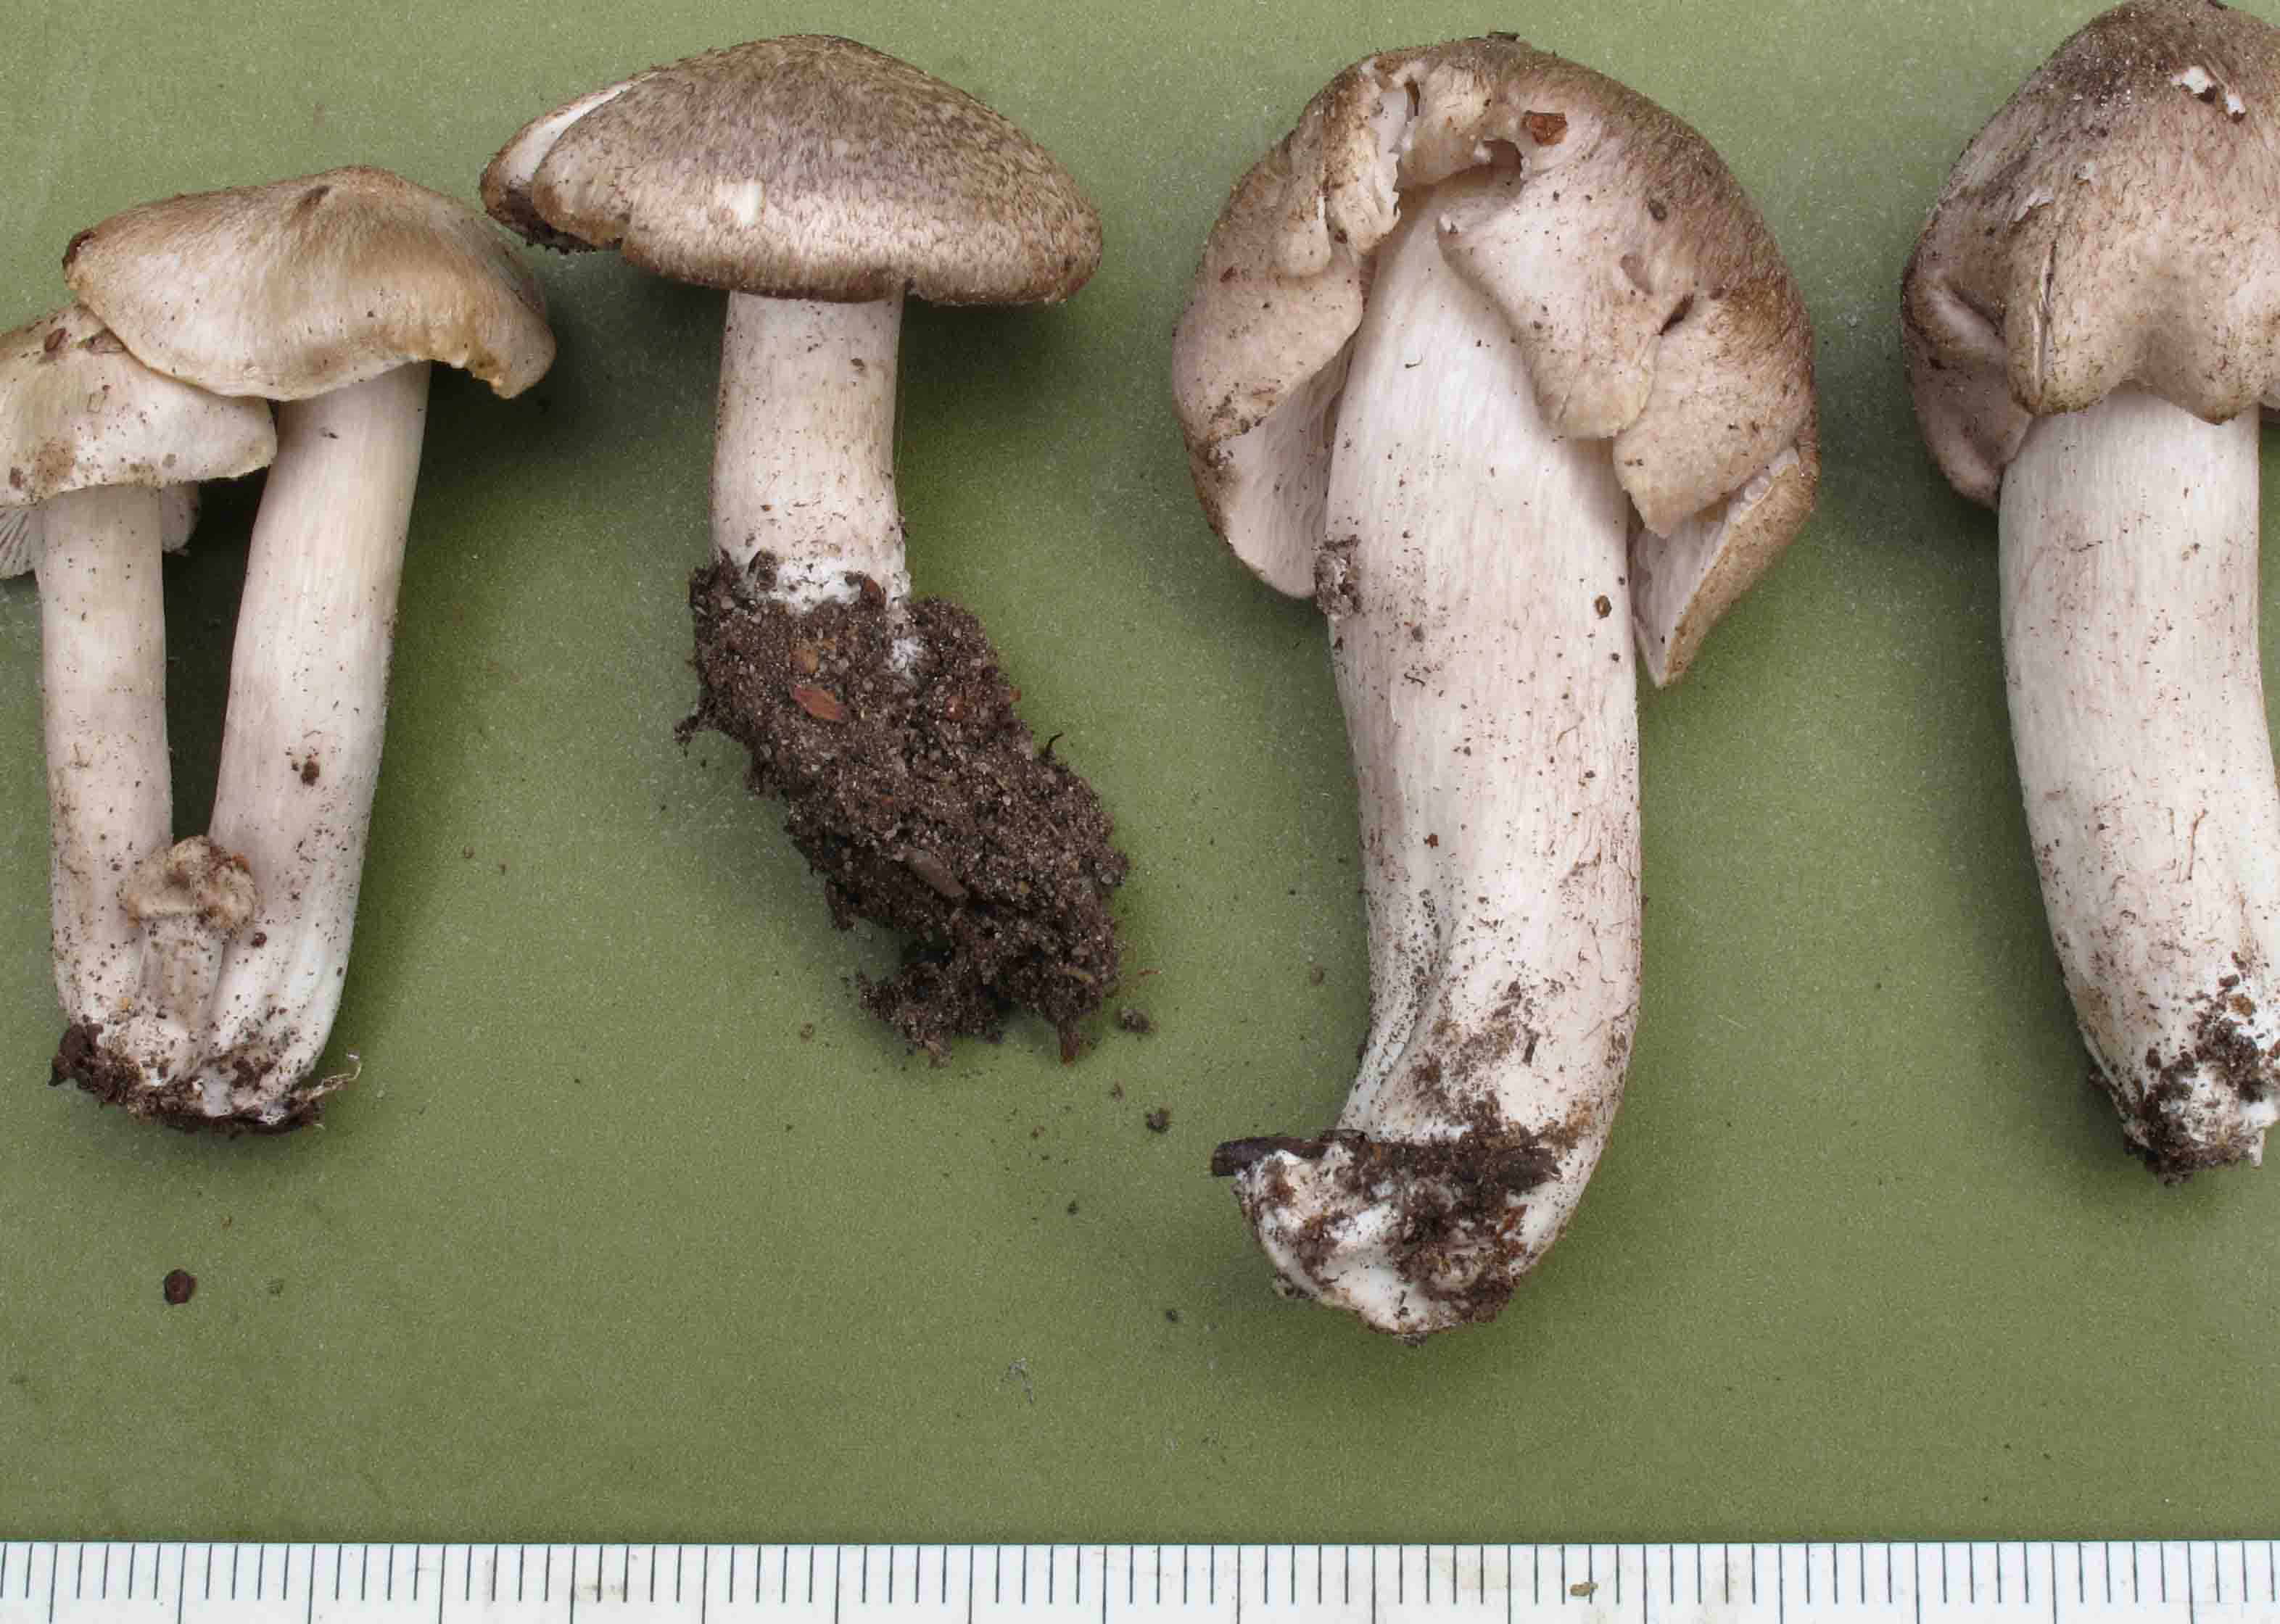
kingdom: Fungi
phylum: Basidiomycota
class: Agaricomycetes
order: Agaricales
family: Tricholomataceae
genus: Tricholoma
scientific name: Tricholoma argyraceum
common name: slør-ridderhat
